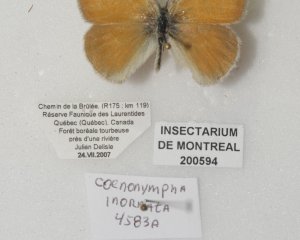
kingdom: Animalia
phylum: Arthropoda
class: Insecta
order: Lepidoptera
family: Nymphalidae
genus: Coenonympha
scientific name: Coenonympha tullia
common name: Large Heath
